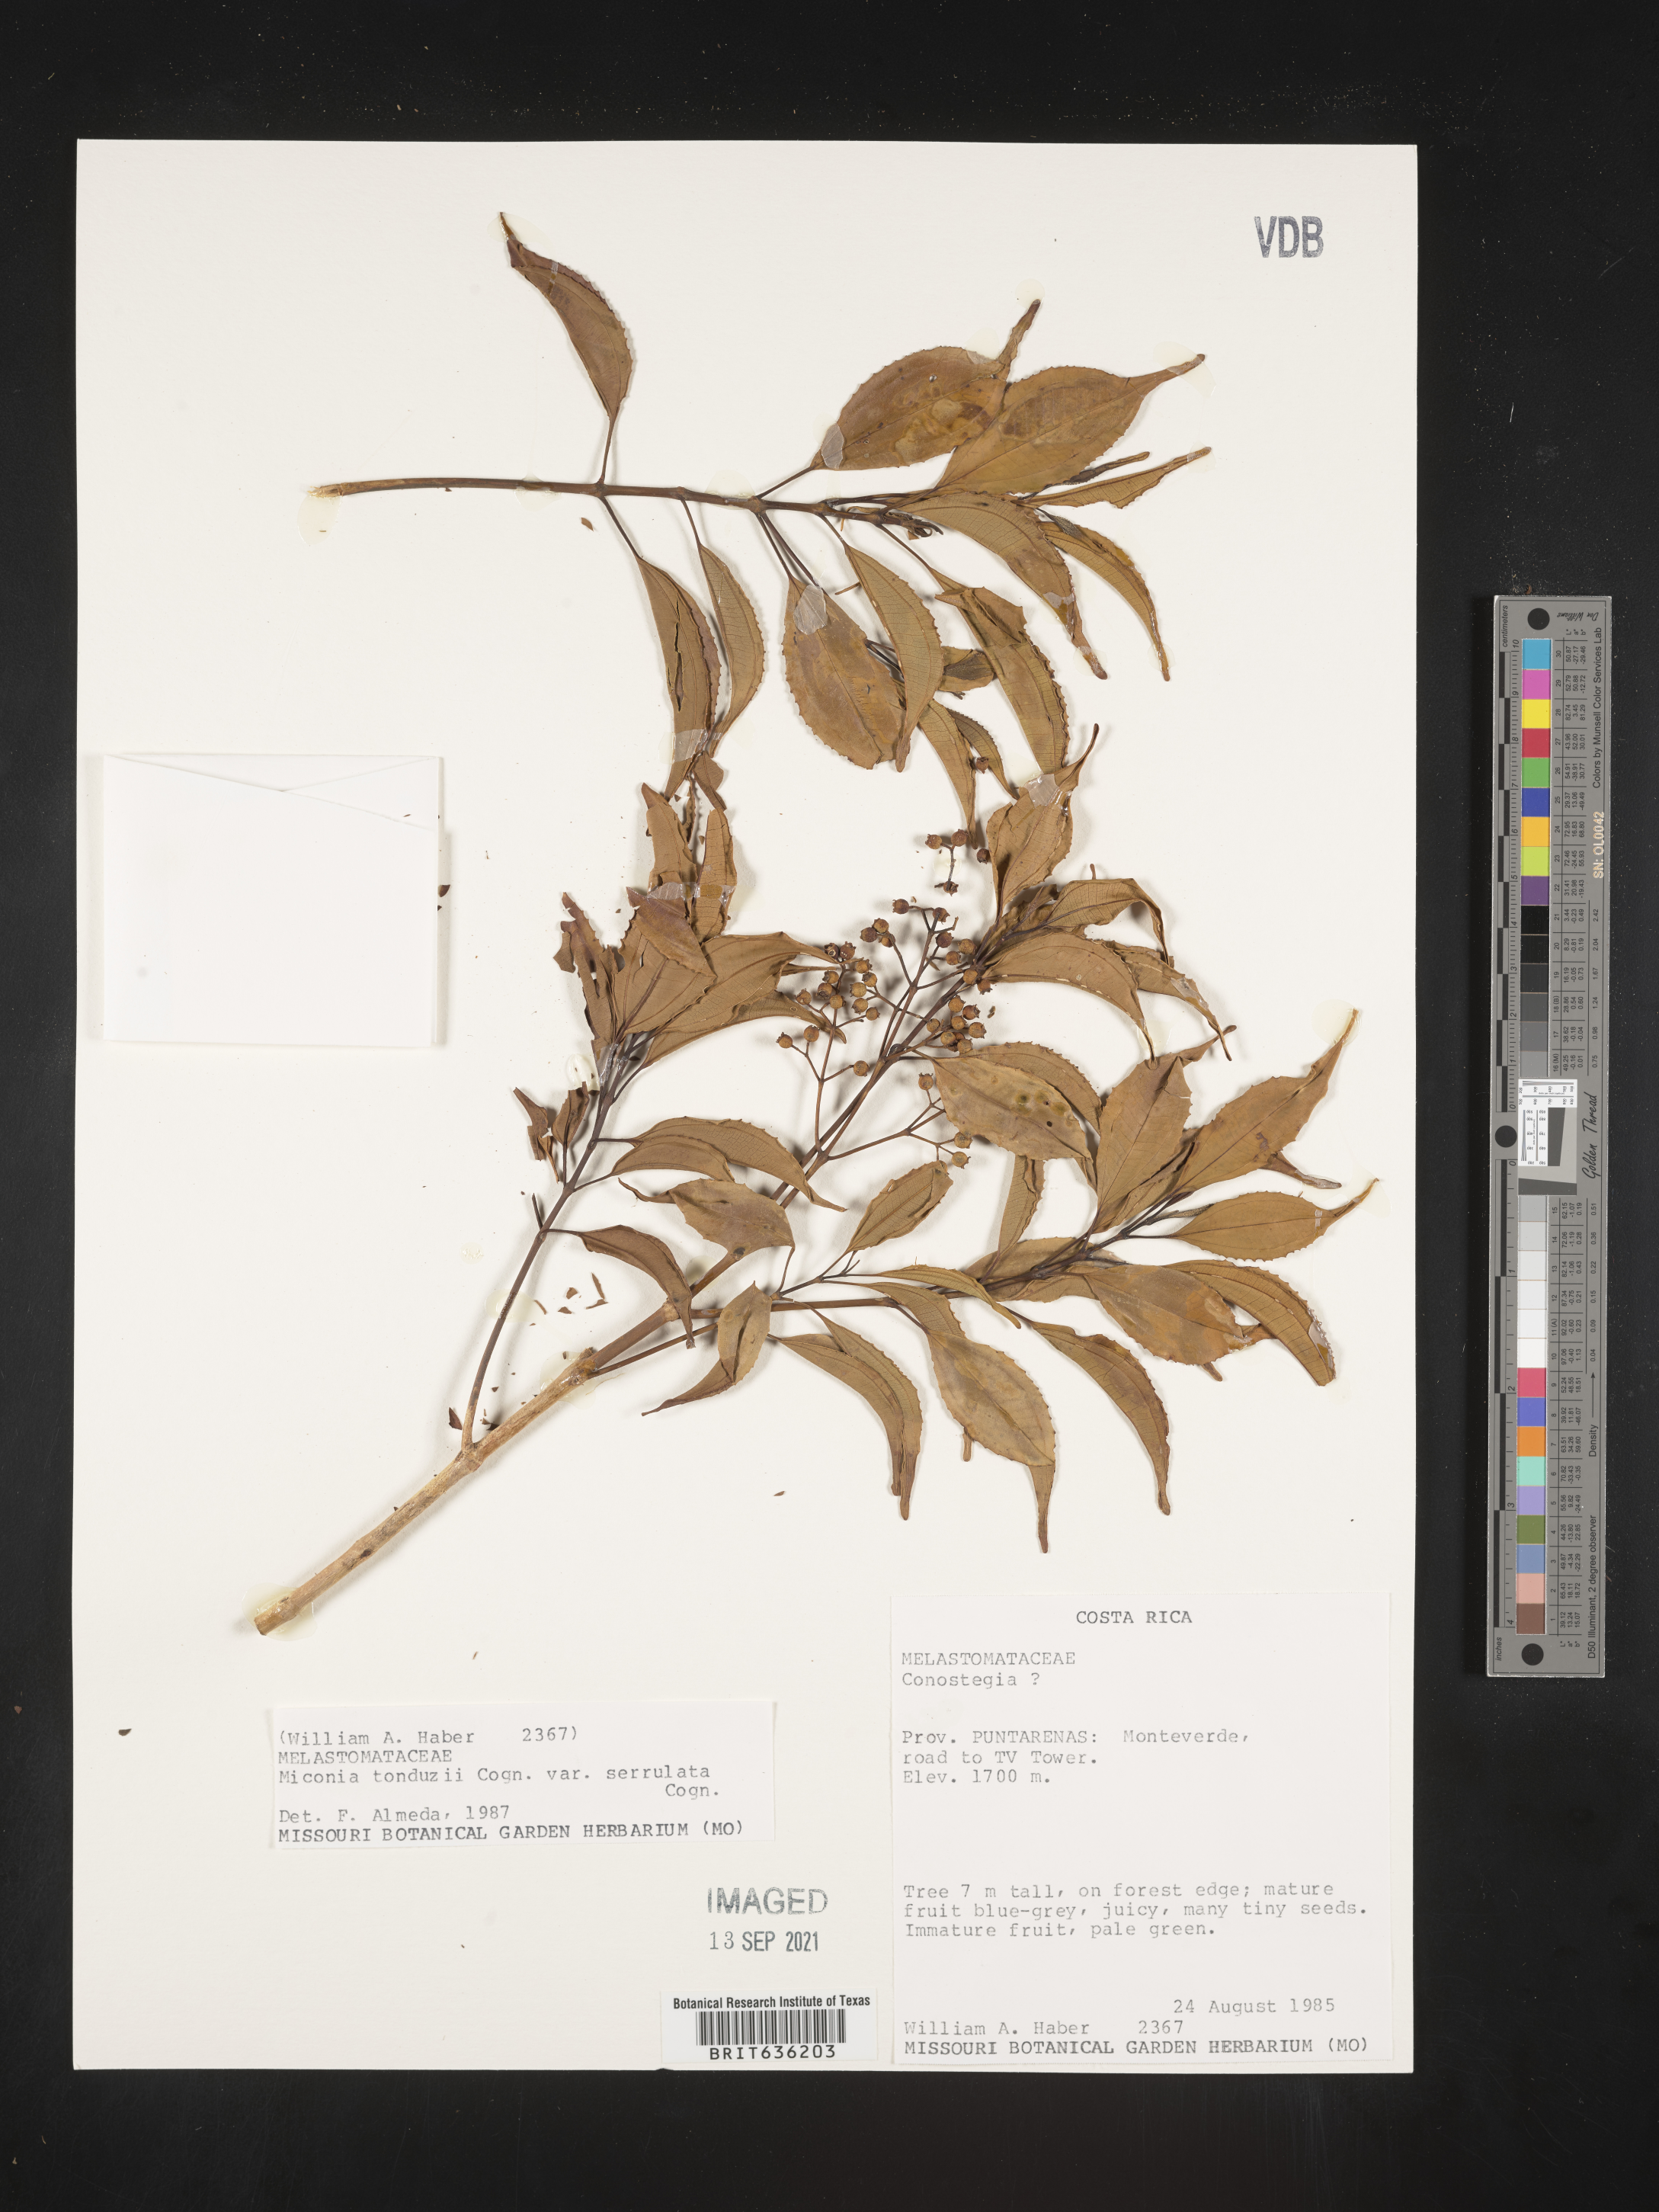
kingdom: Plantae
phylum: Tracheophyta
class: Magnoliopsida
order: Myrtales
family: Melastomataceae
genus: Miconia
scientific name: Miconia
